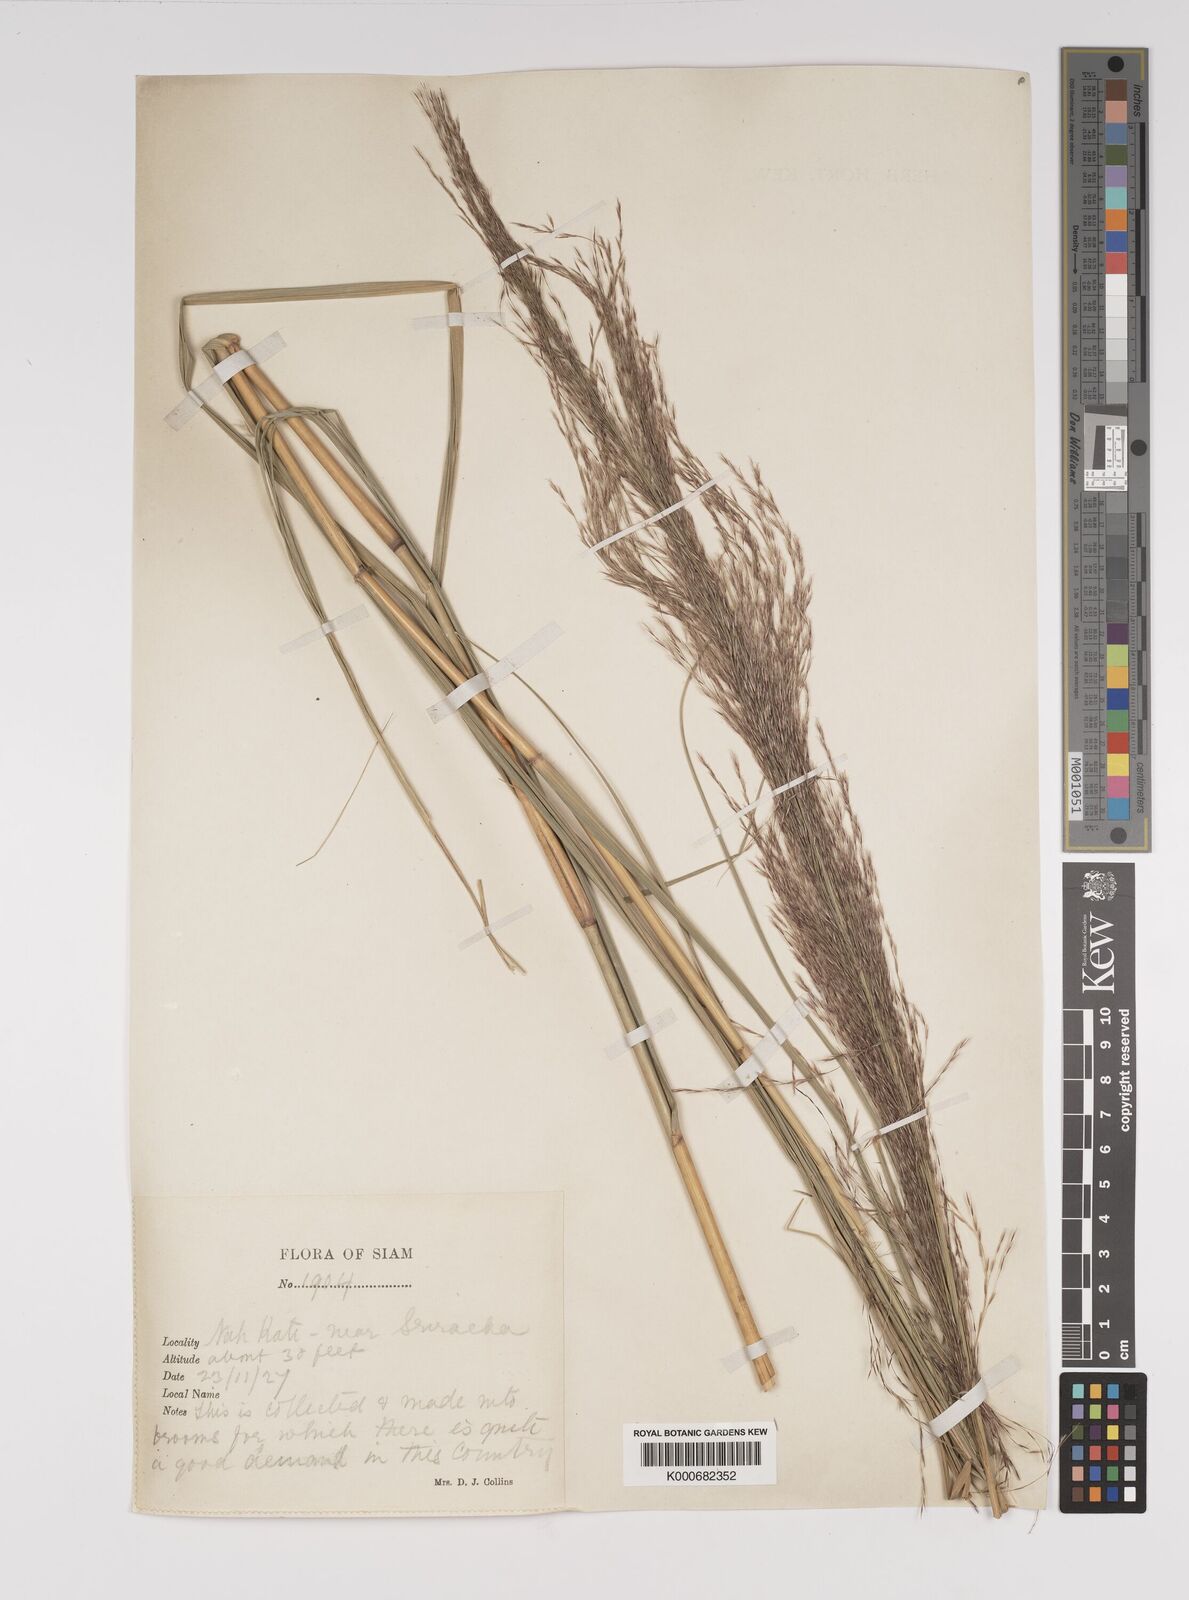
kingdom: Plantae
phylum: Tracheophyta
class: Liliopsida
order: Poales
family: Poaceae
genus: Neyraudia
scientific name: Neyraudia reynaudiana
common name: Silkreed
